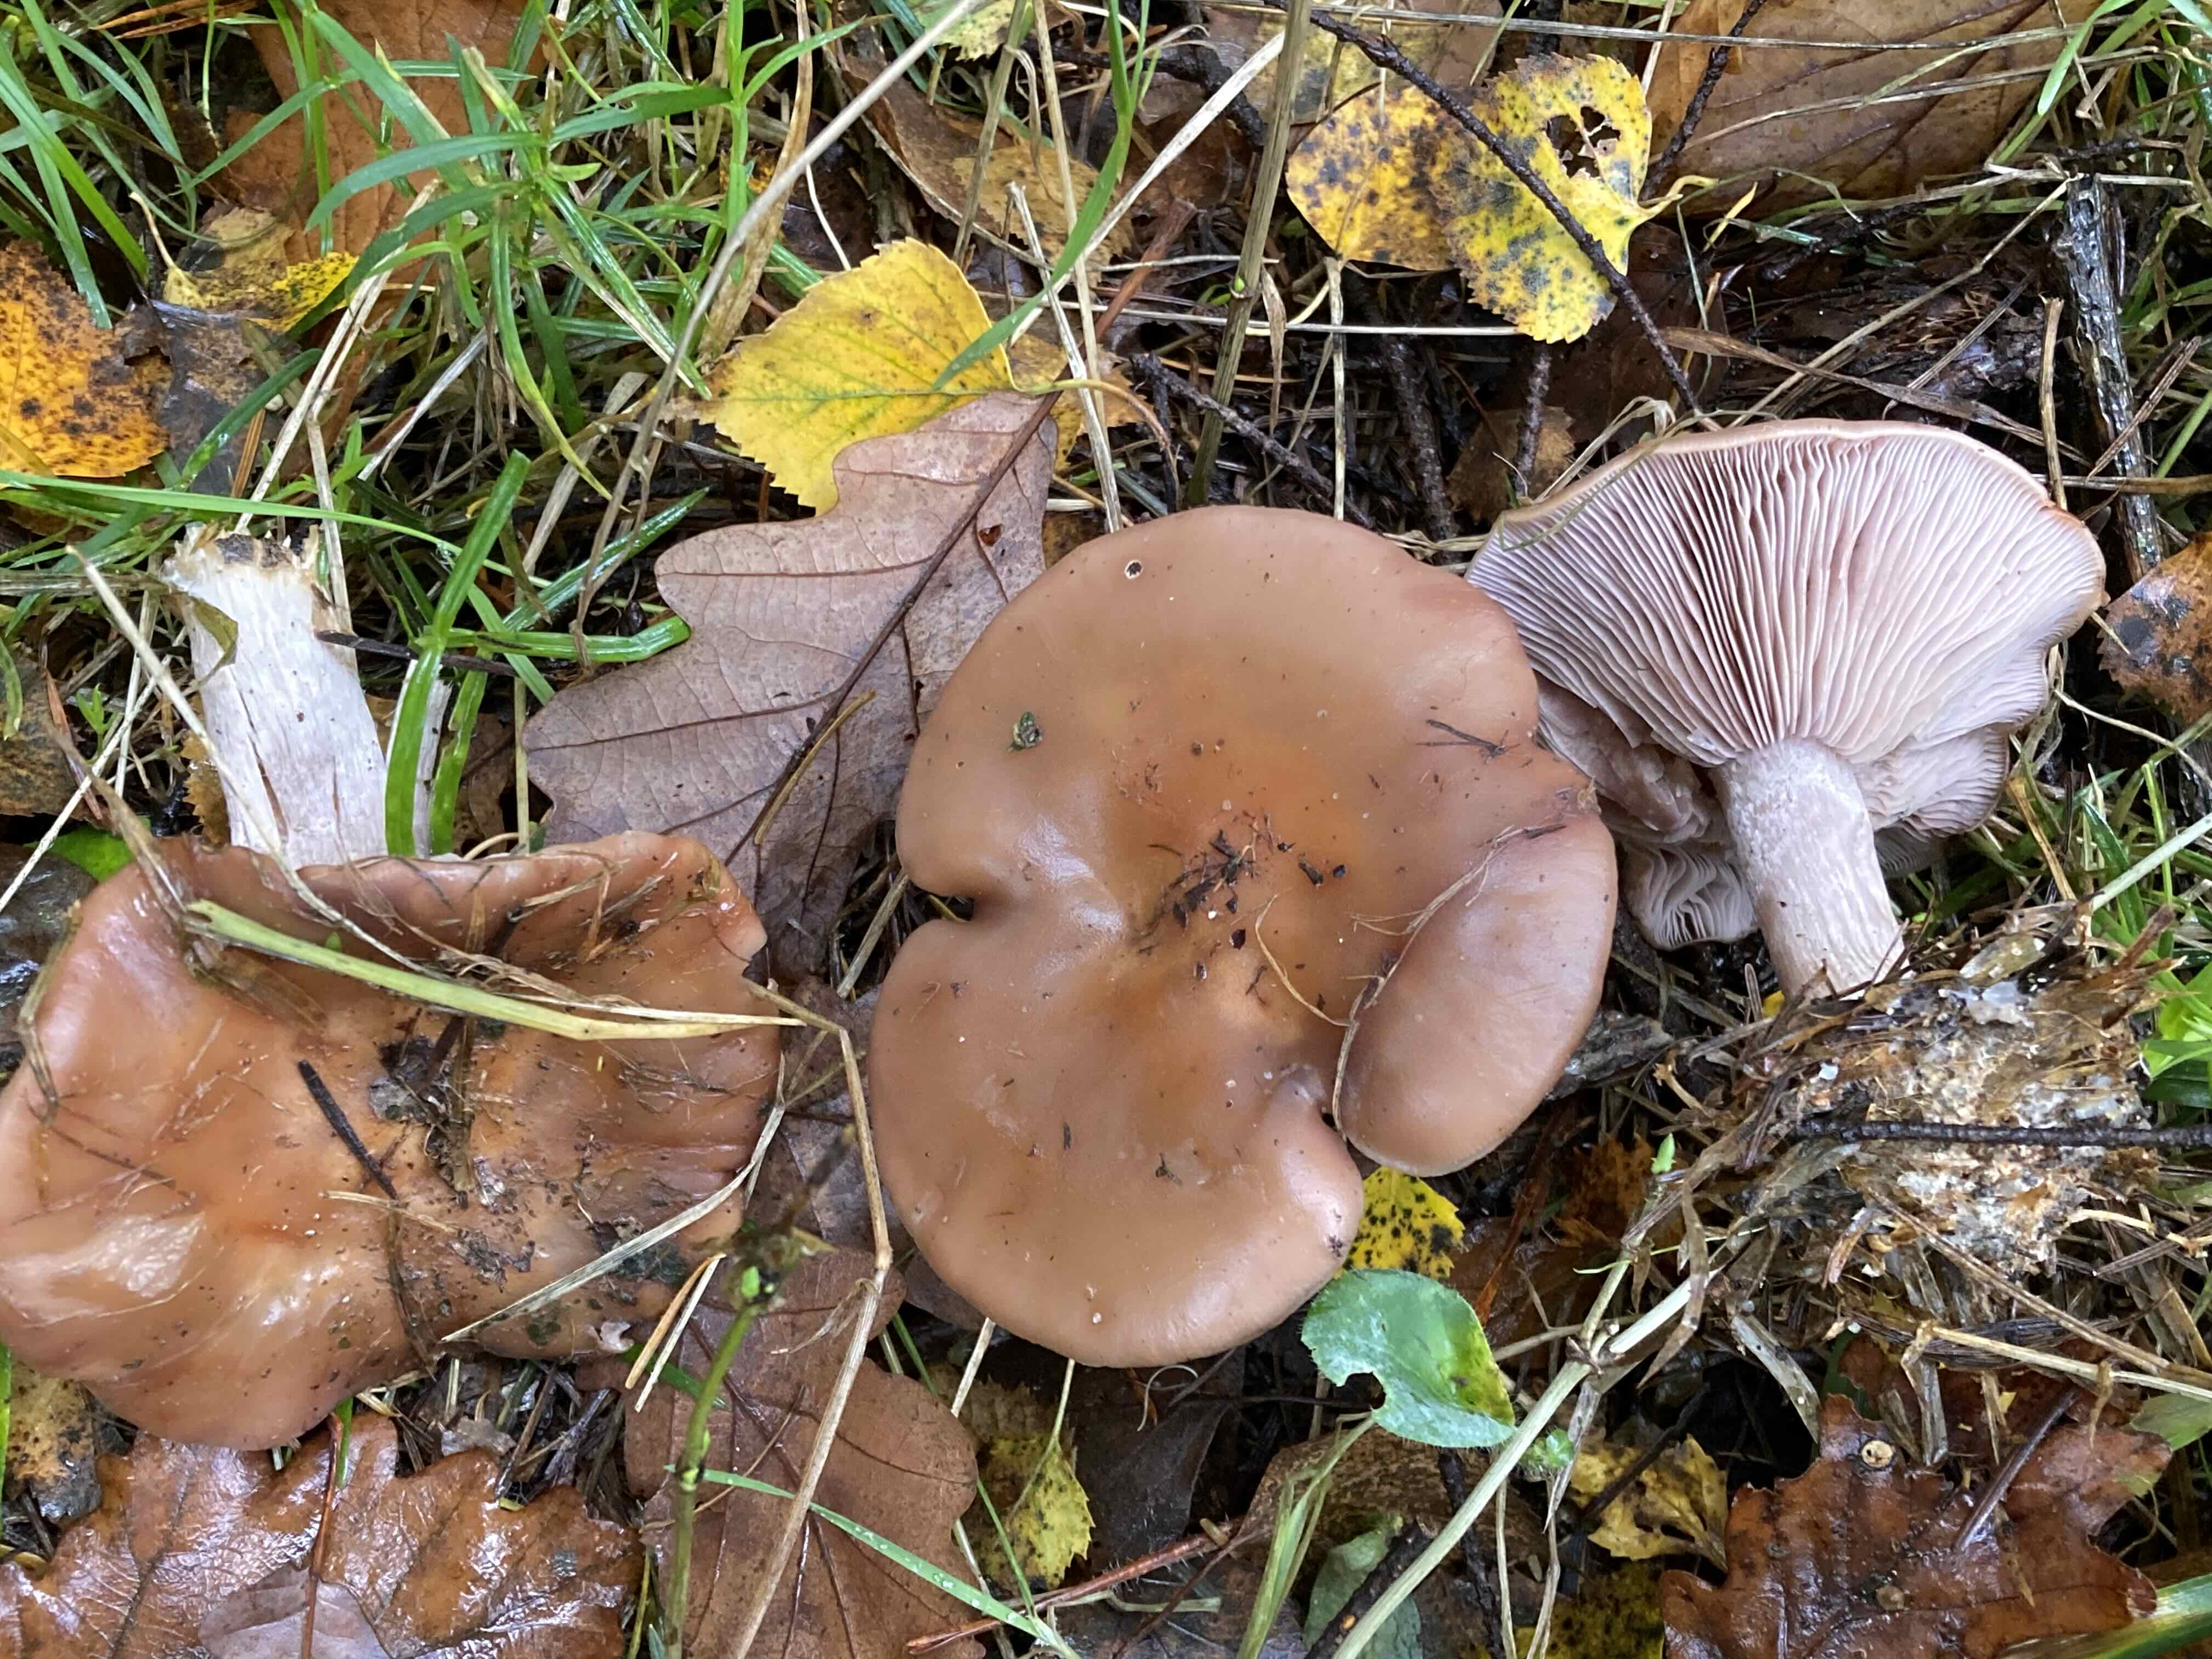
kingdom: Fungi
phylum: Basidiomycota
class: Agaricomycetes
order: Agaricales
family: Tricholomataceae
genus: Lepista
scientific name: Lepista nuda
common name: violet hekseringshat
